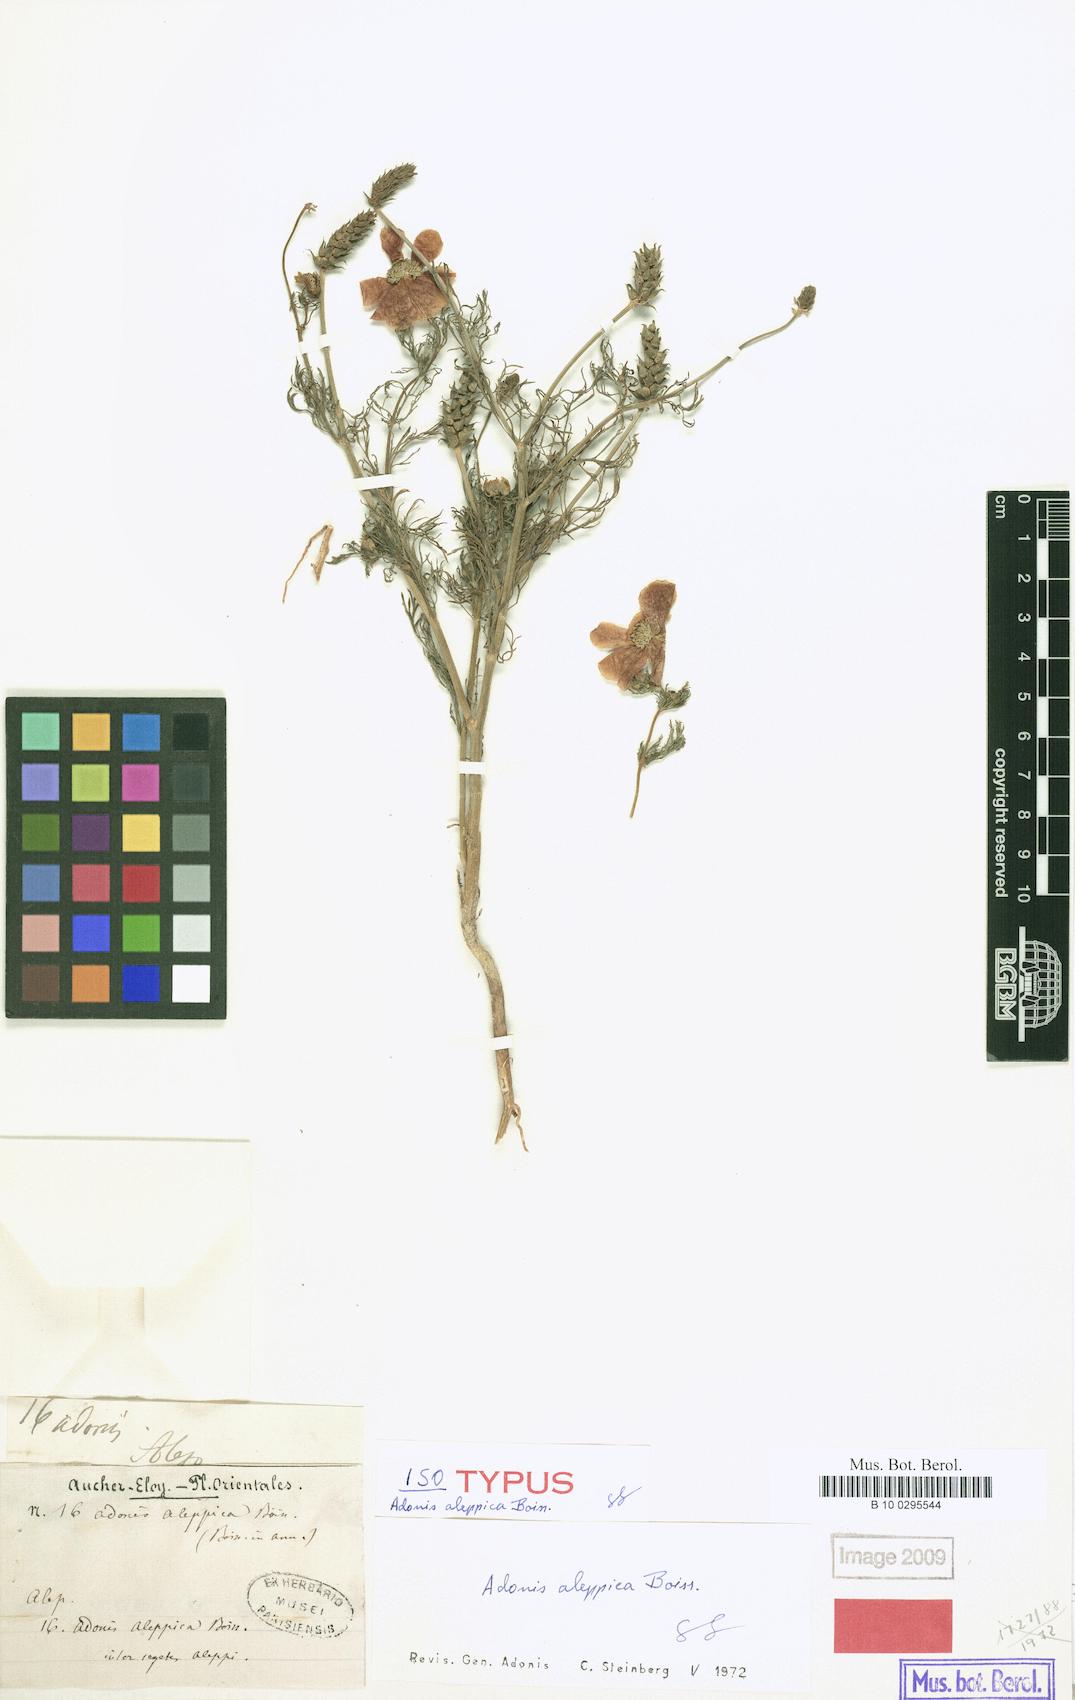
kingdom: Plantae
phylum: Tracheophyta
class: Magnoliopsida
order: Ranunculales
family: Ranunculaceae
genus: Adonis
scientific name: Adonis aleppica
